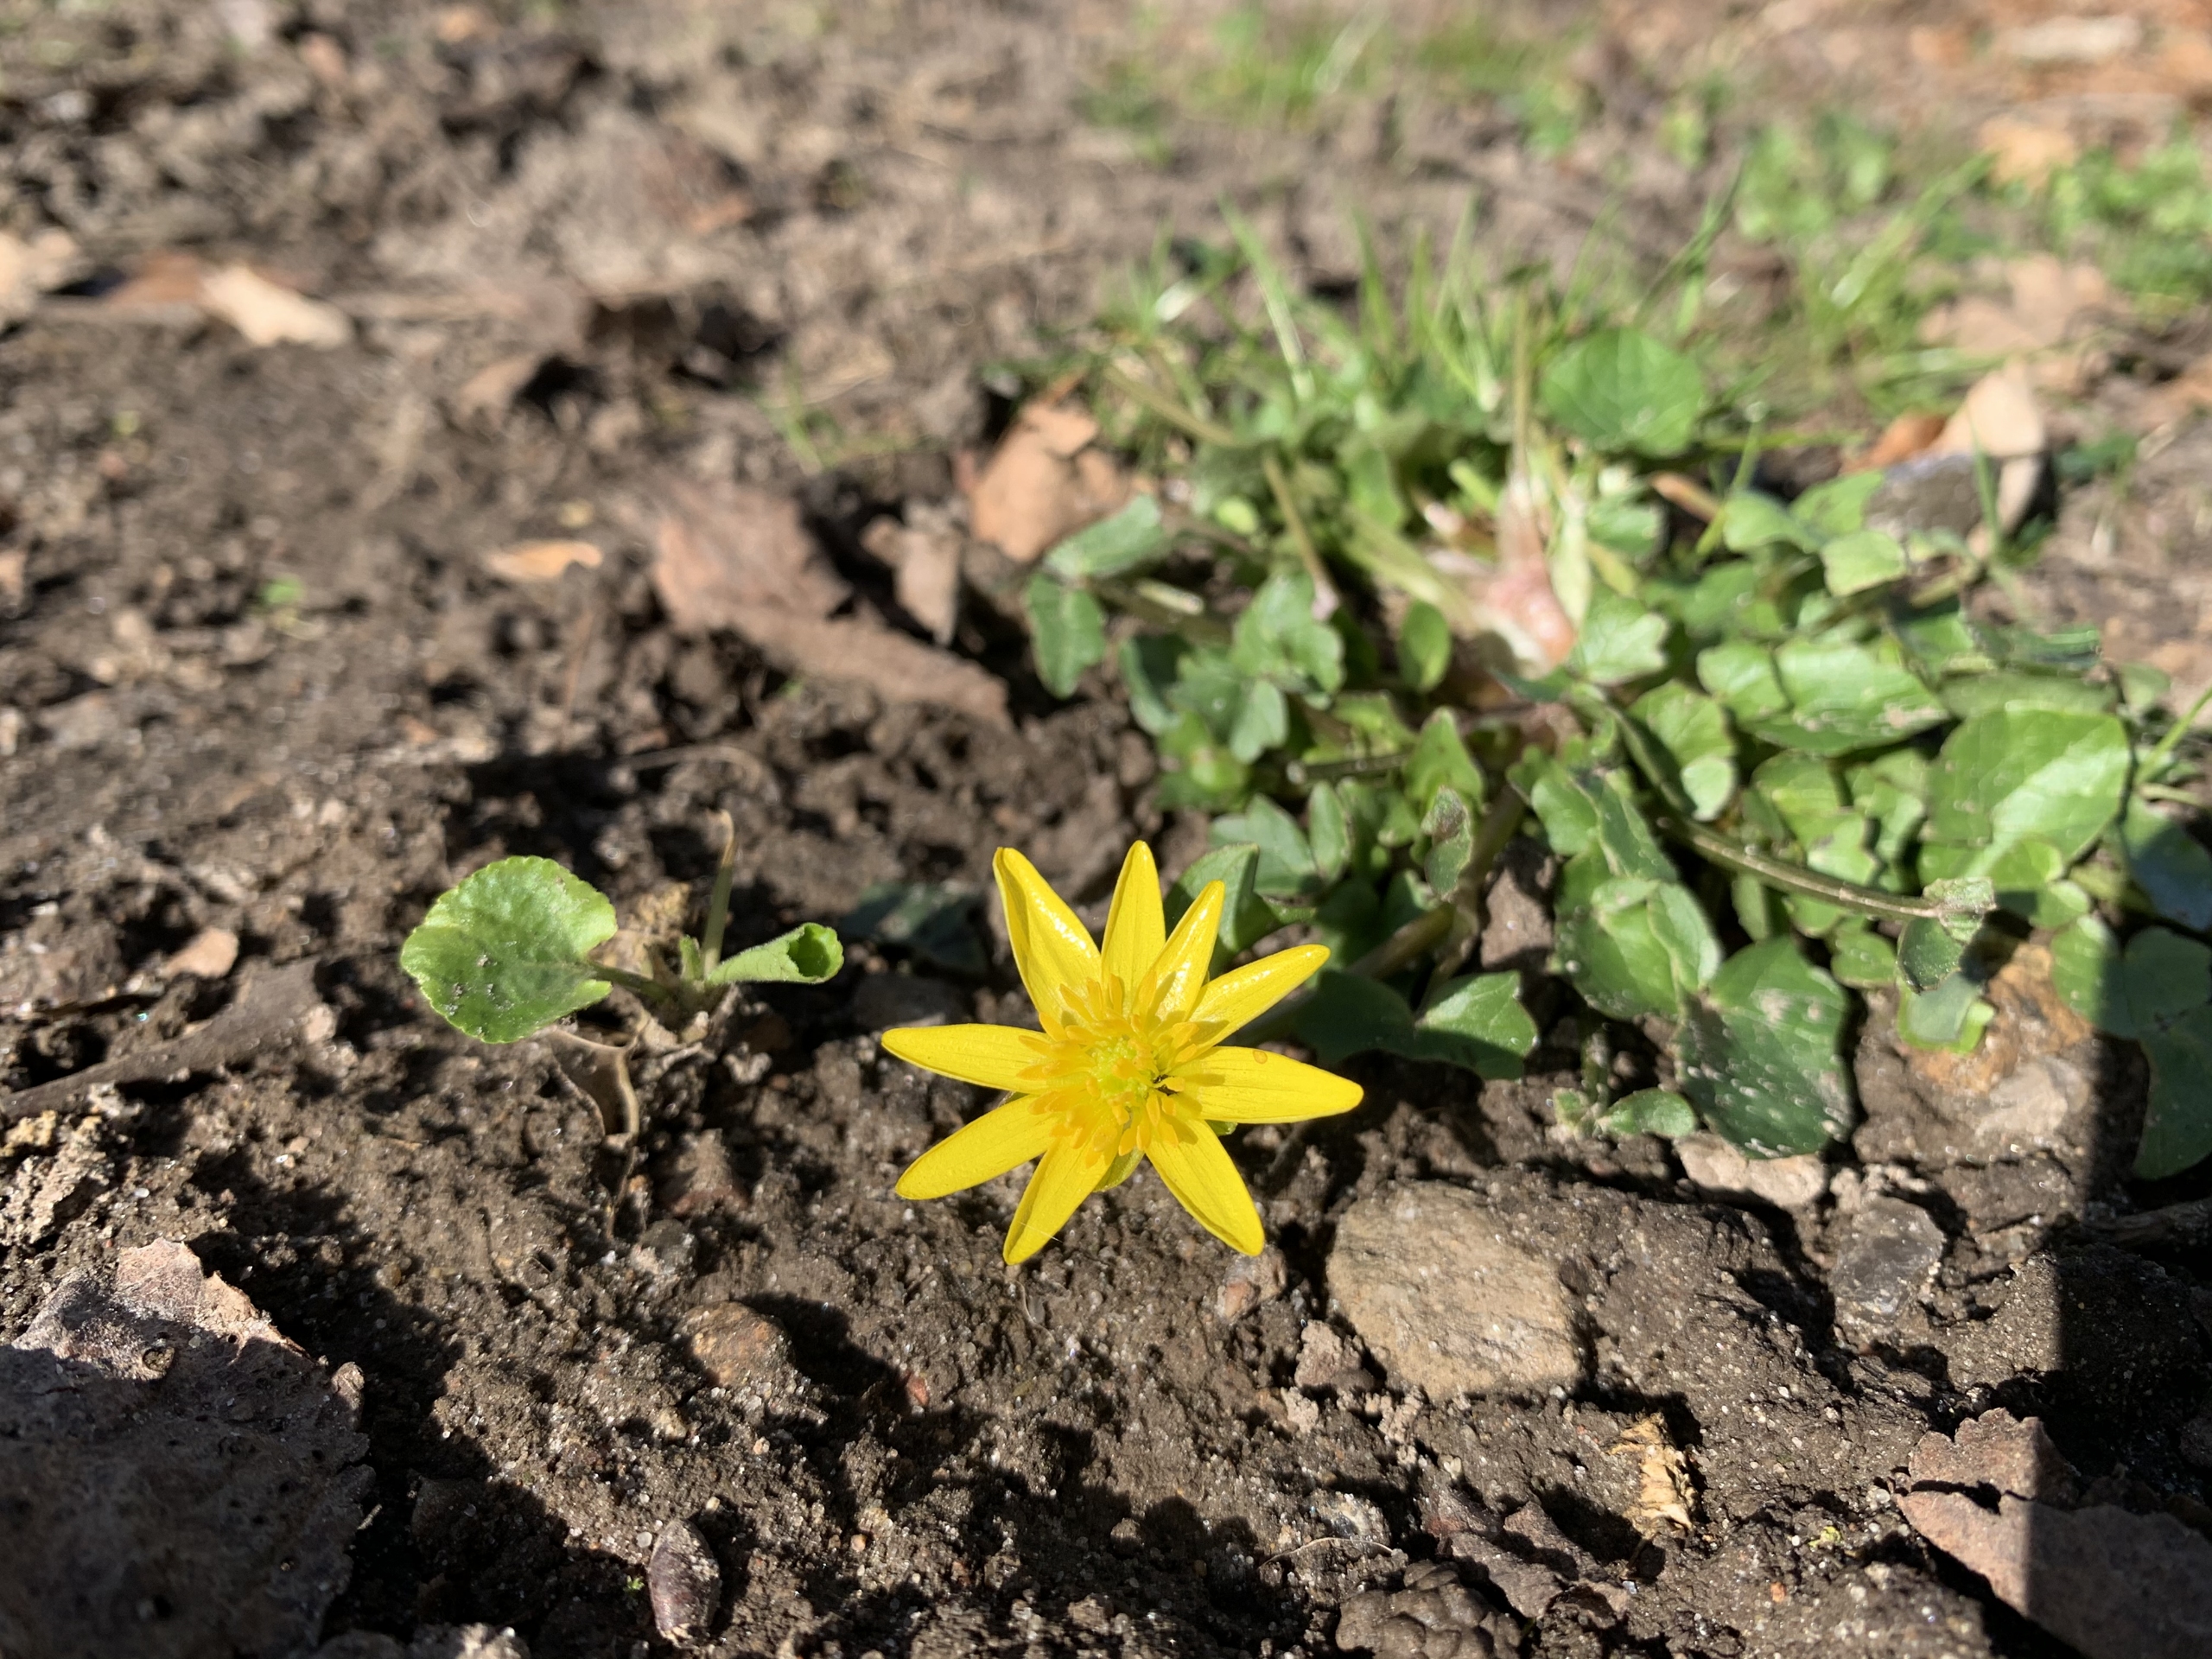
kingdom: Plantae
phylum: Tracheophyta
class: Magnoliopsida
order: Ranunculales
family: Ranunculaceae
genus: Ficaria
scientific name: Ficaria verna
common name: Vorterod
